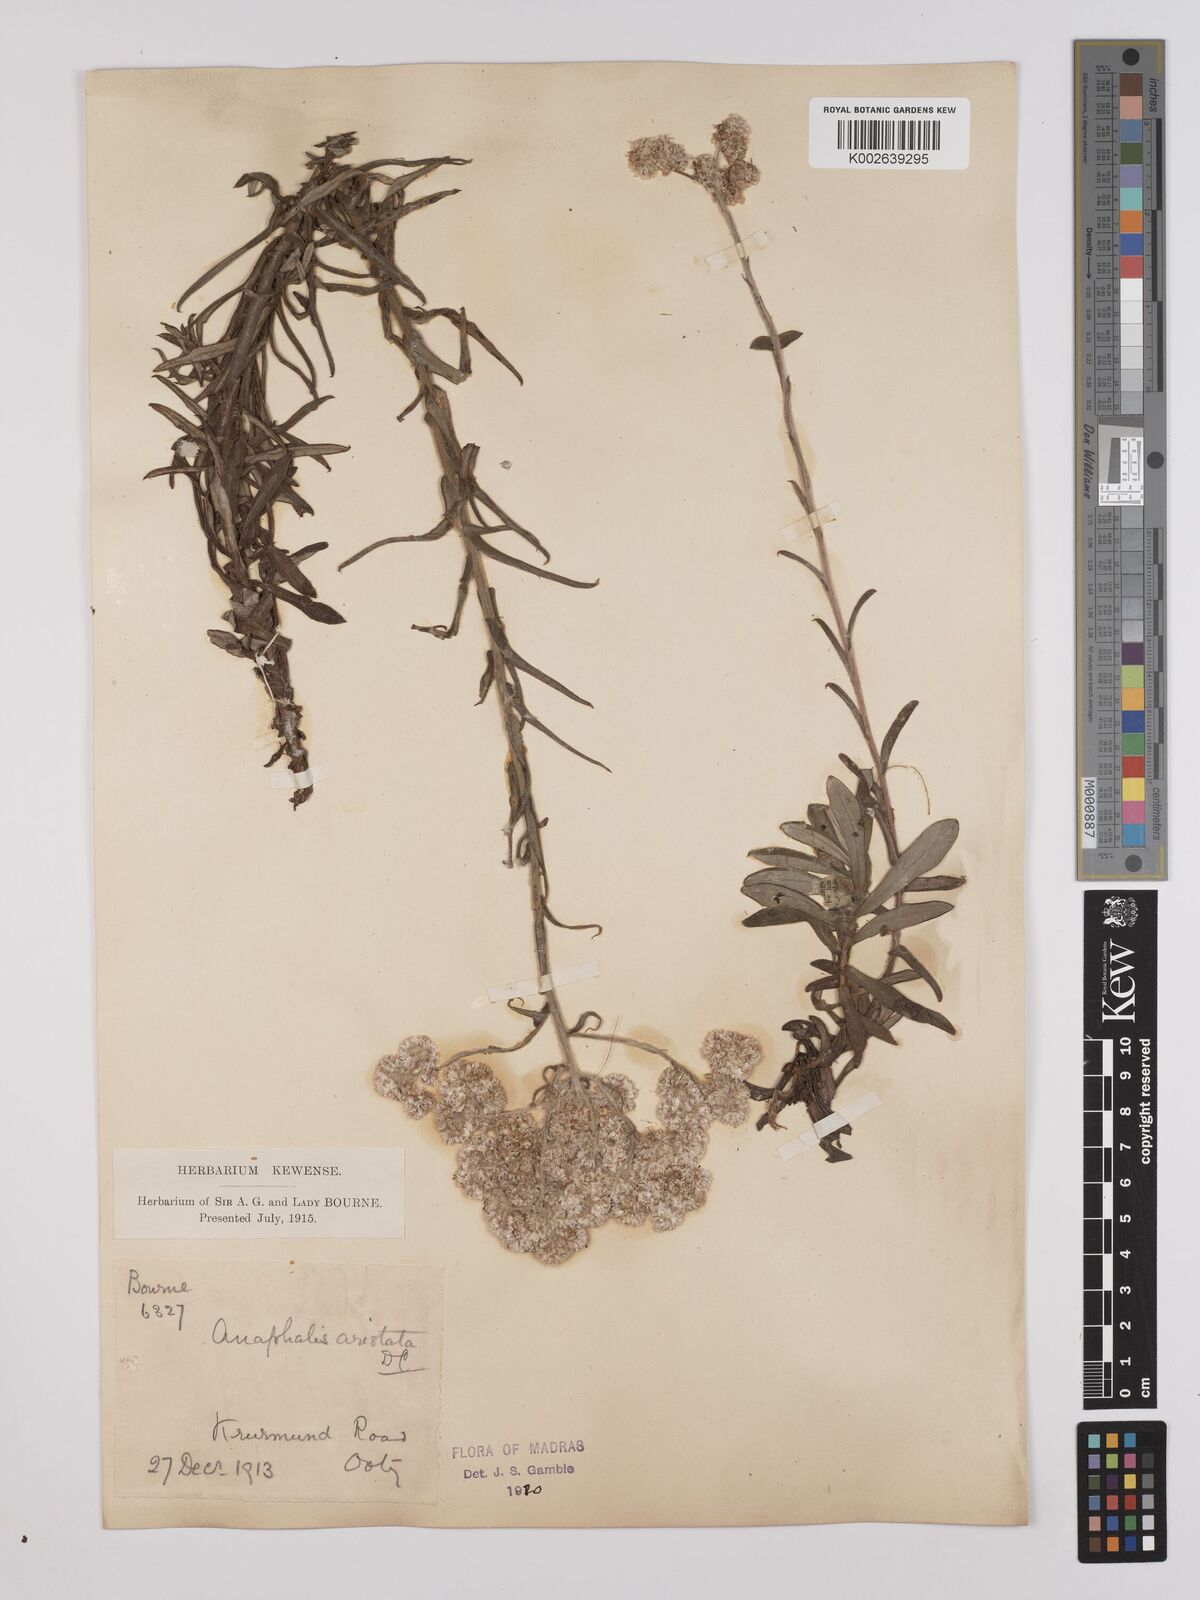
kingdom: Plantae
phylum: Tracheophyta
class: Magnoliopsida
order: Asterales
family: Asteraceae
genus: Anaphalis
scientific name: Anaphalis aristata
